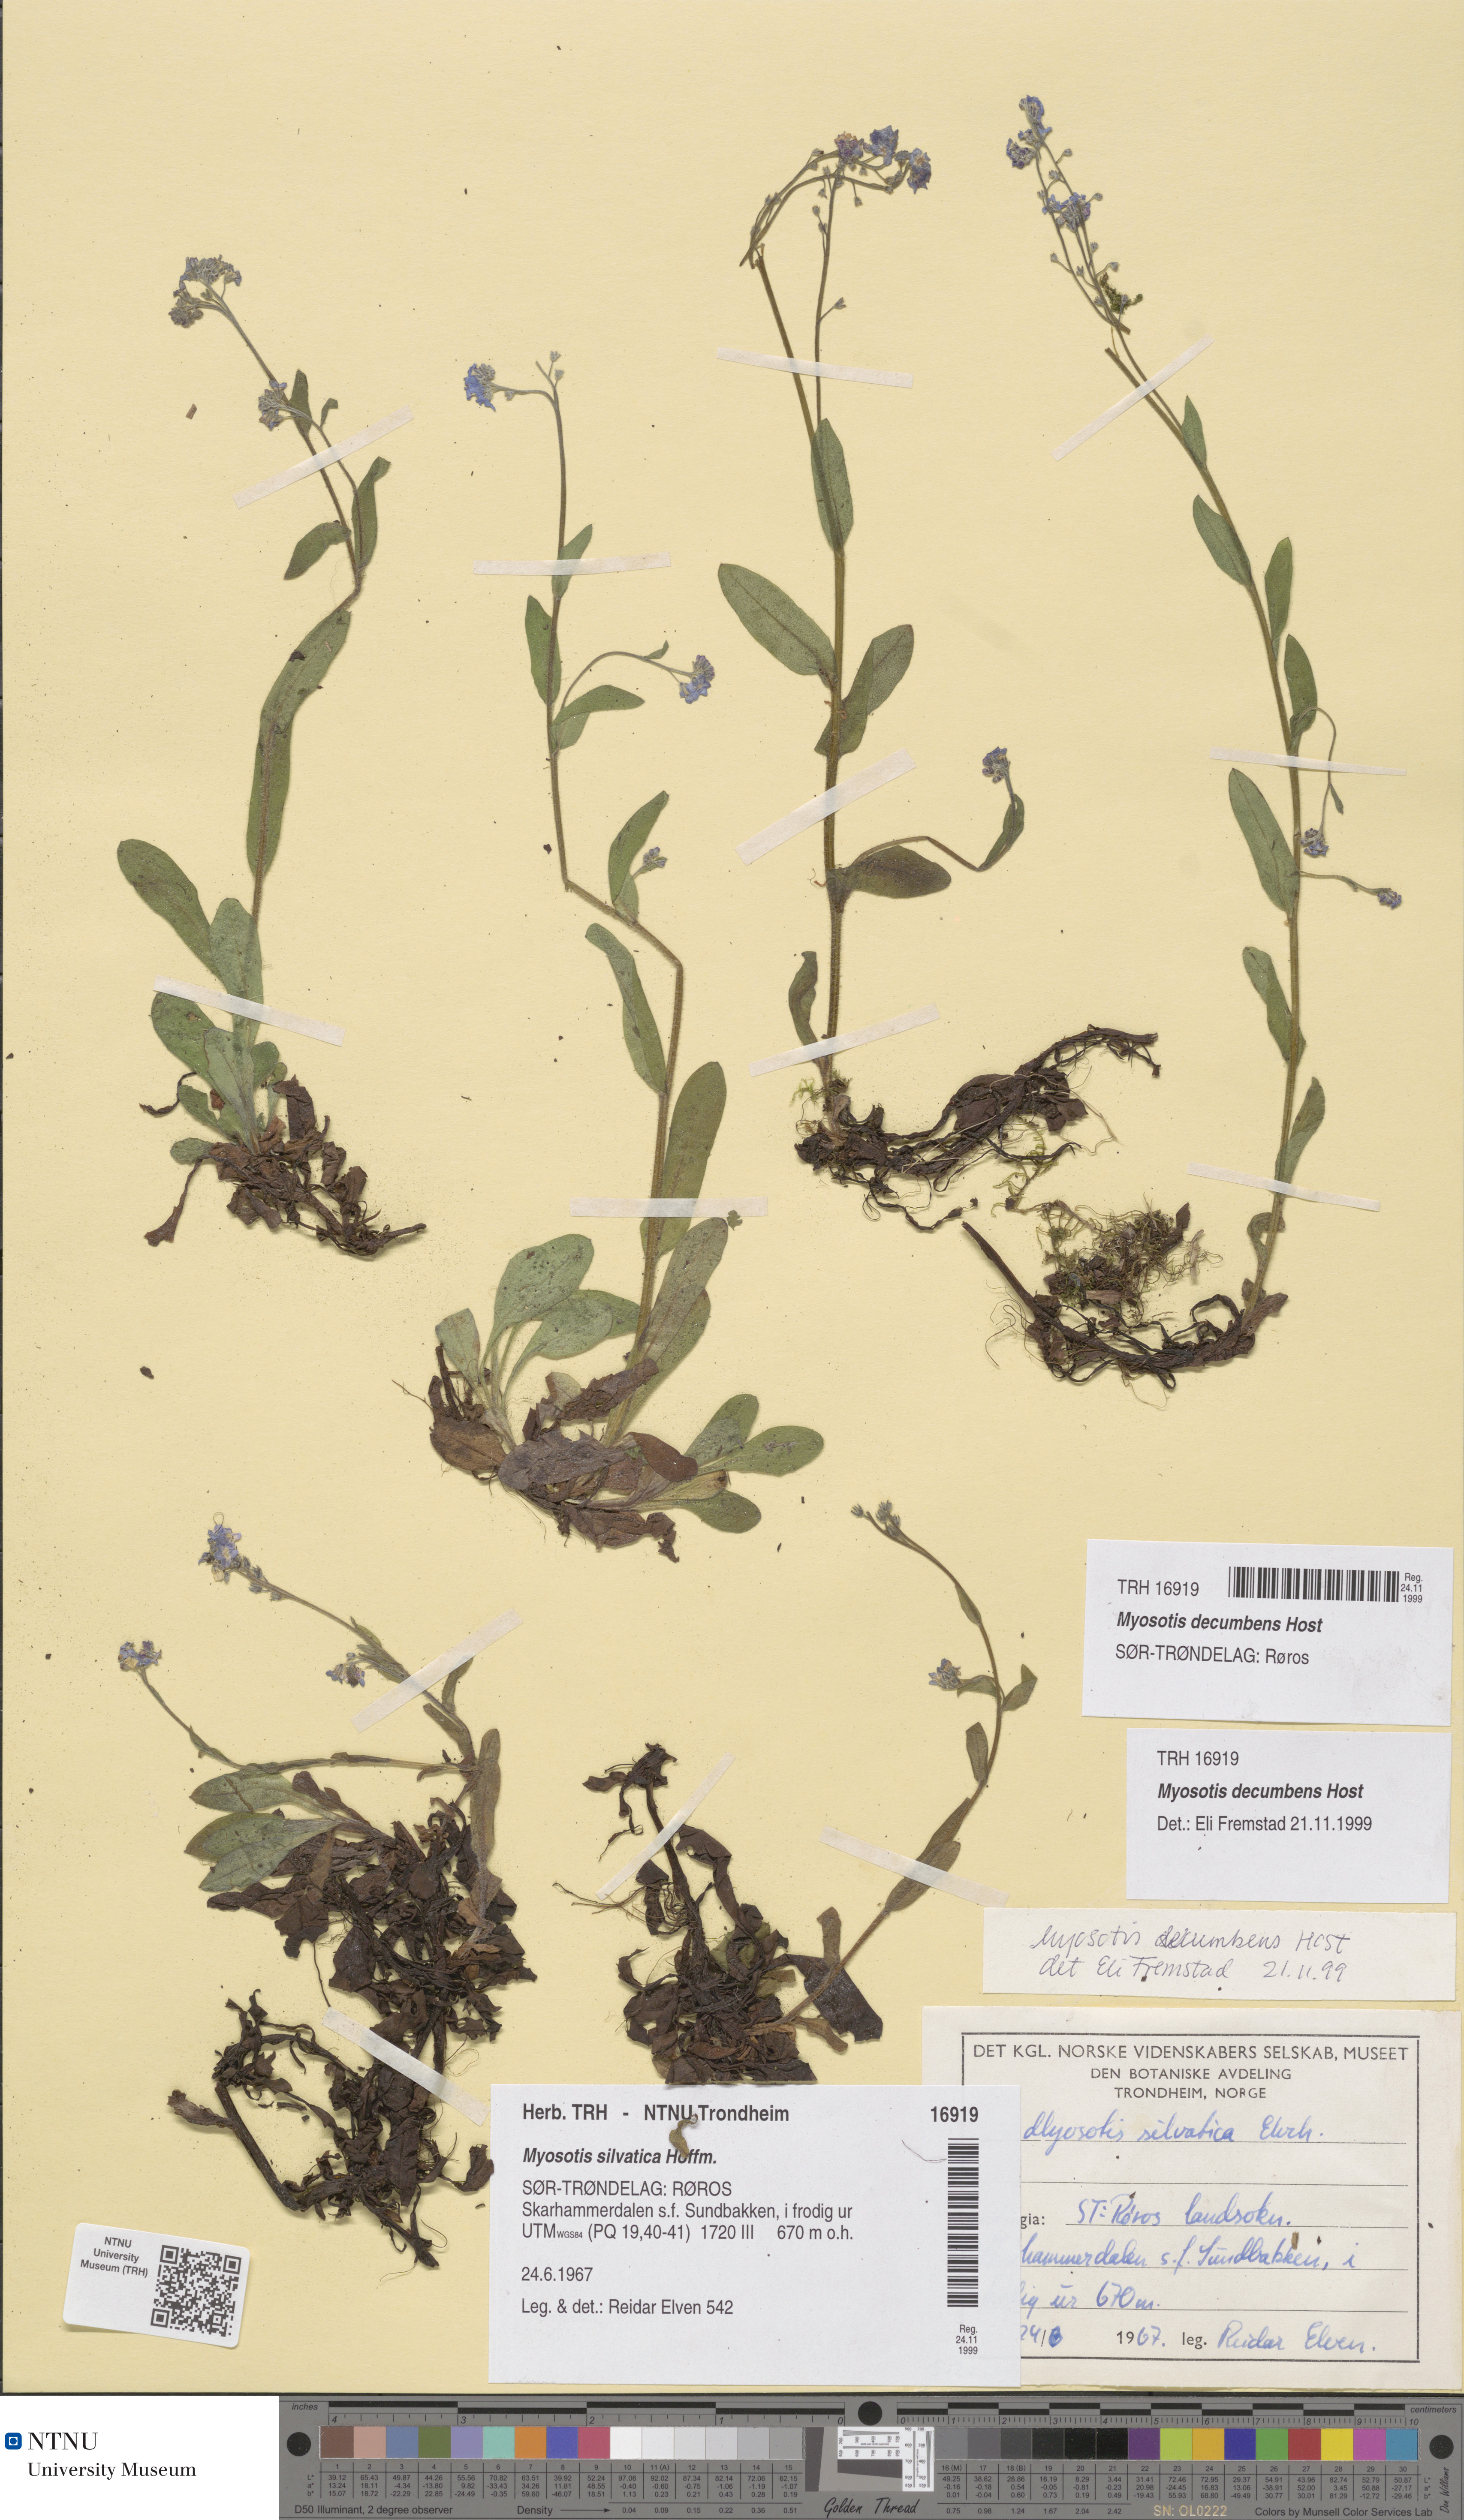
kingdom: Plantae
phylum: Tracheophyta
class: Magnoliopsida
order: Boraginales
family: Boraginaceae
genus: Myosotis
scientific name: Myosotis decumbens
